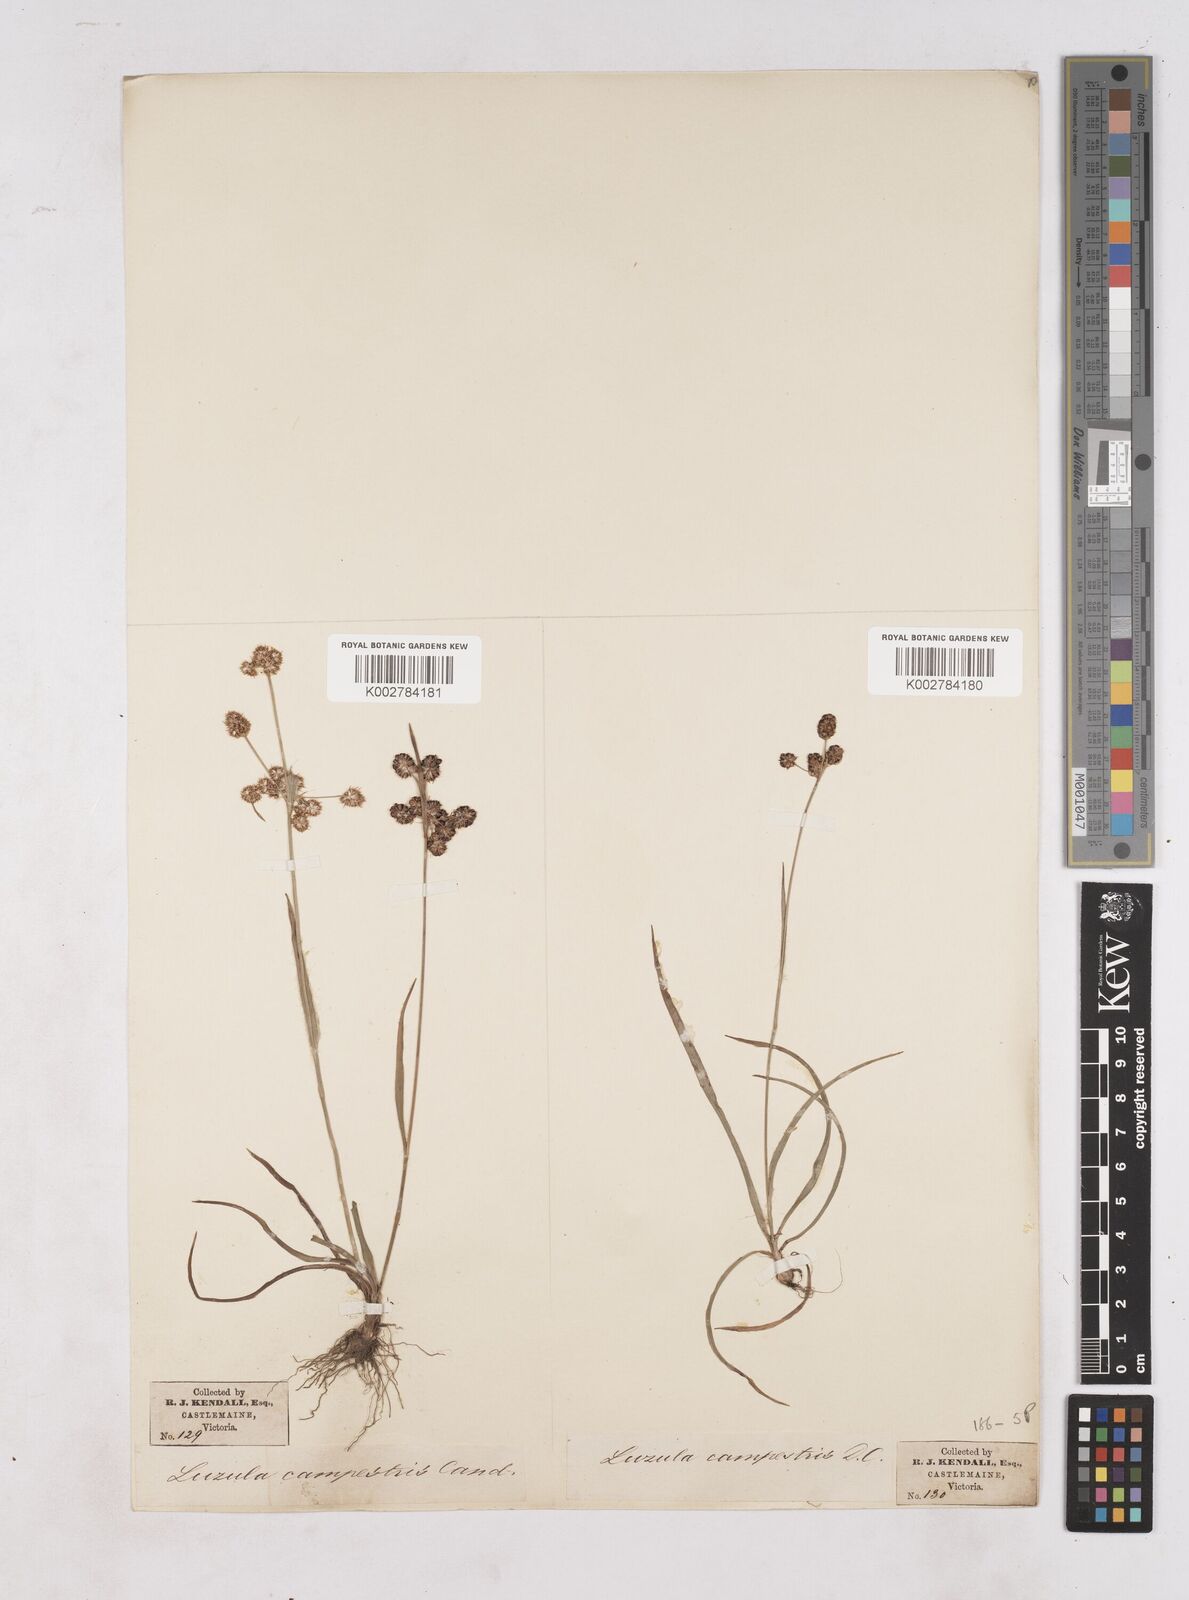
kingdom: Plantae
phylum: Tracheophyta
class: Liliopsida
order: Poales
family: Juncaceae
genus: Luzula
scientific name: Luzula campestris
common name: Field wood-rush
